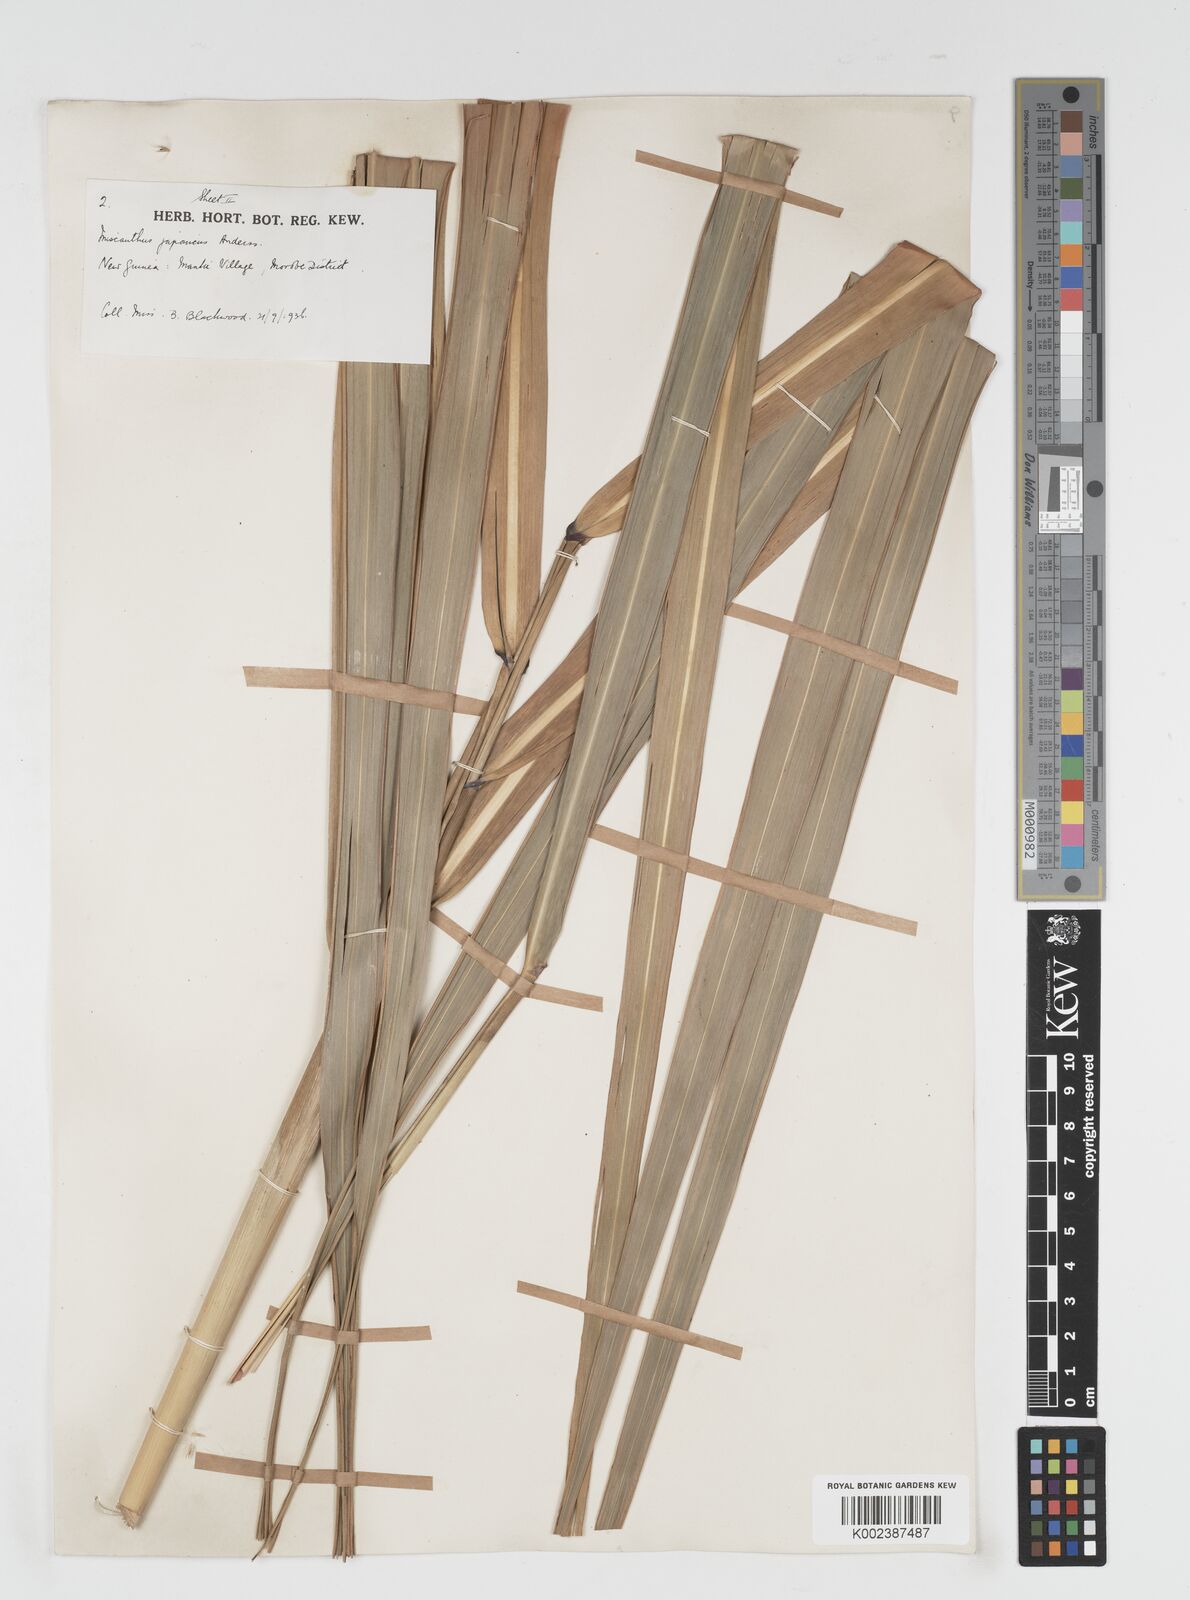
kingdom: Plantae
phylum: Tracheophyta
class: Liliopsida
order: Poales
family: Poaceae
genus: Miscanthus
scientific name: Miscanthus floridulus
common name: Pacific island silvergrass
